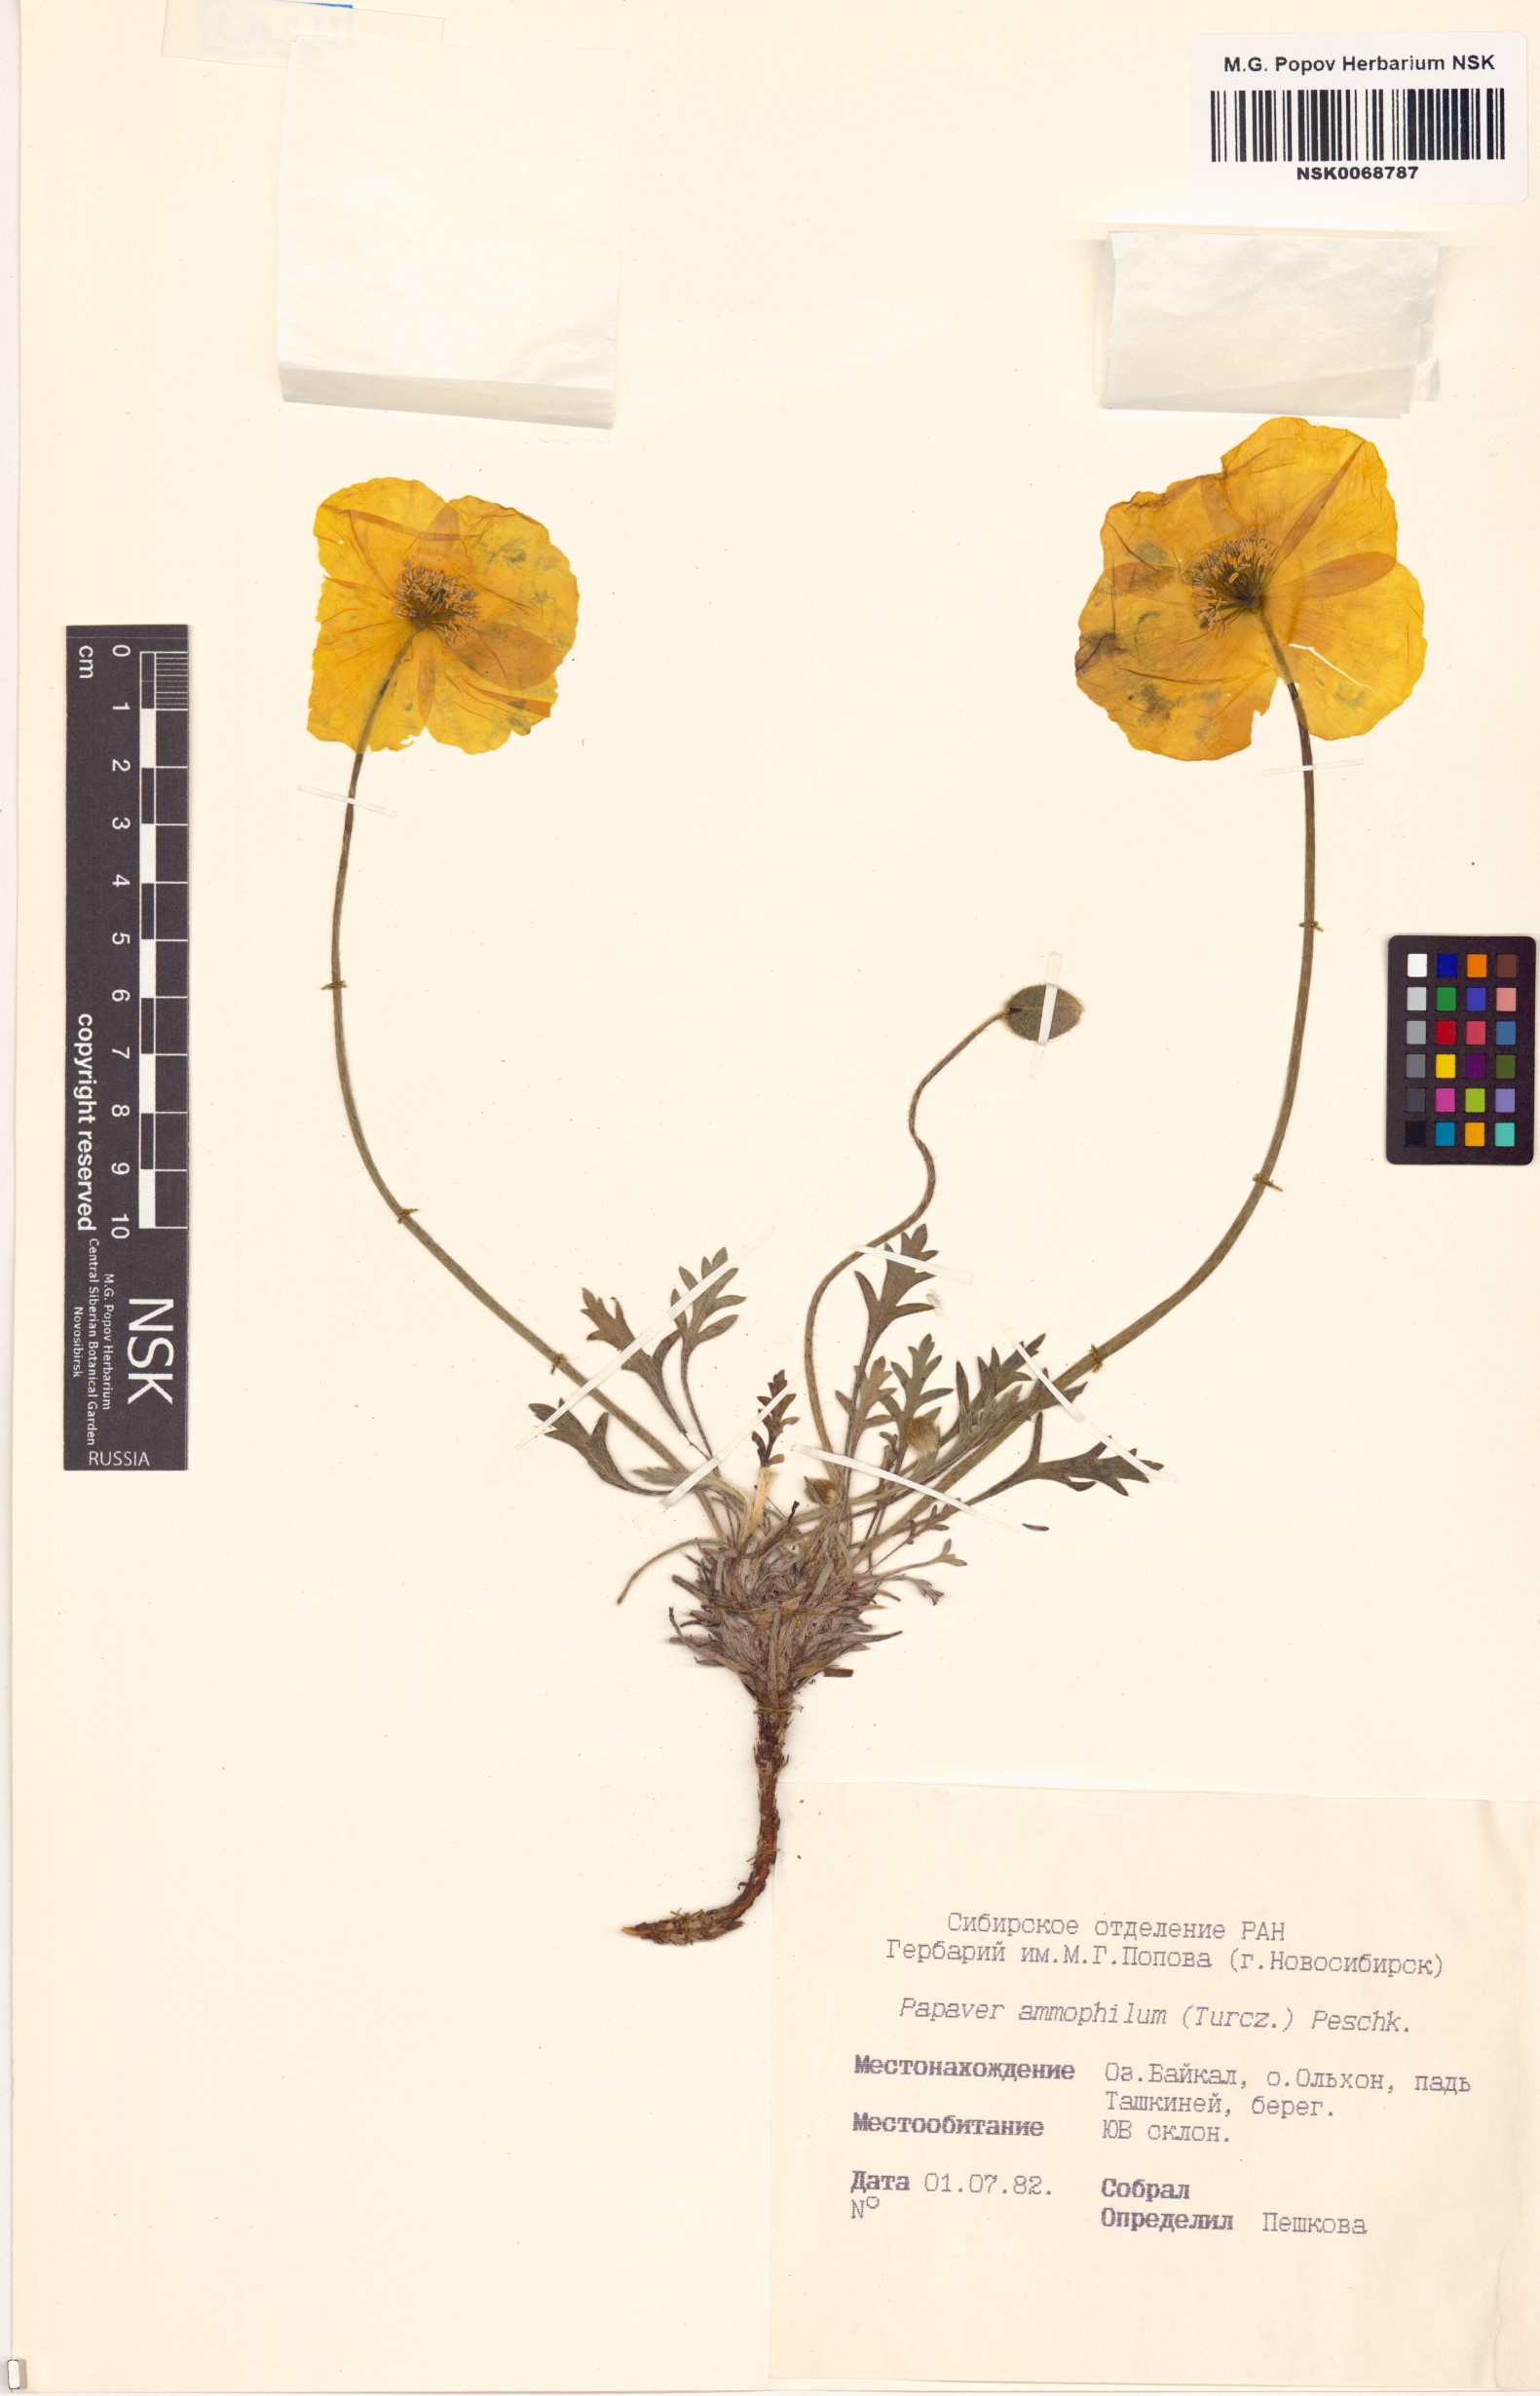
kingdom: Plantae
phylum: Tracheophyta
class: Magnoliopsida
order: Ranunculales
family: Papaveraceae
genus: Papaver
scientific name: Papaver nudicaule
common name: Arctic poppy
